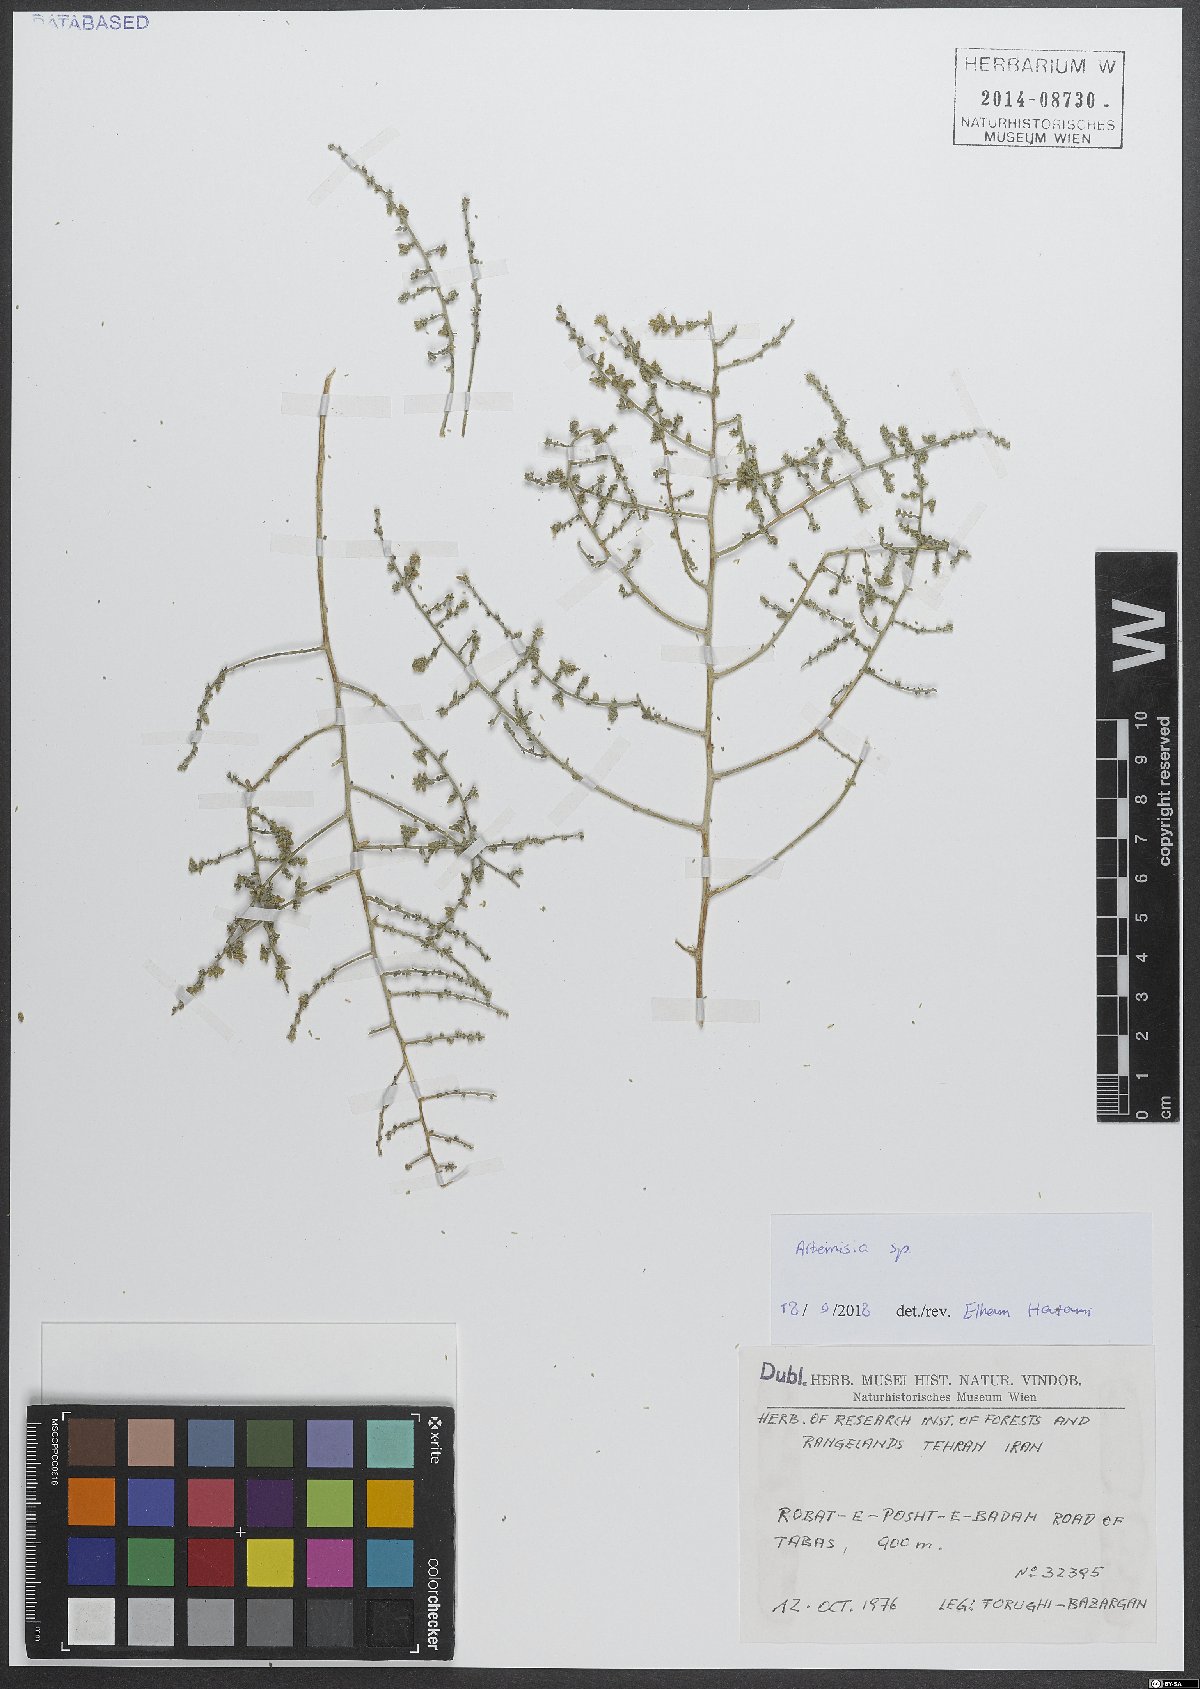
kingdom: Plantae
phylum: Tracheophyta
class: Magnoliopsida
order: Asterales
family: Asteraceae
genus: Artemisia
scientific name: Artemisia
